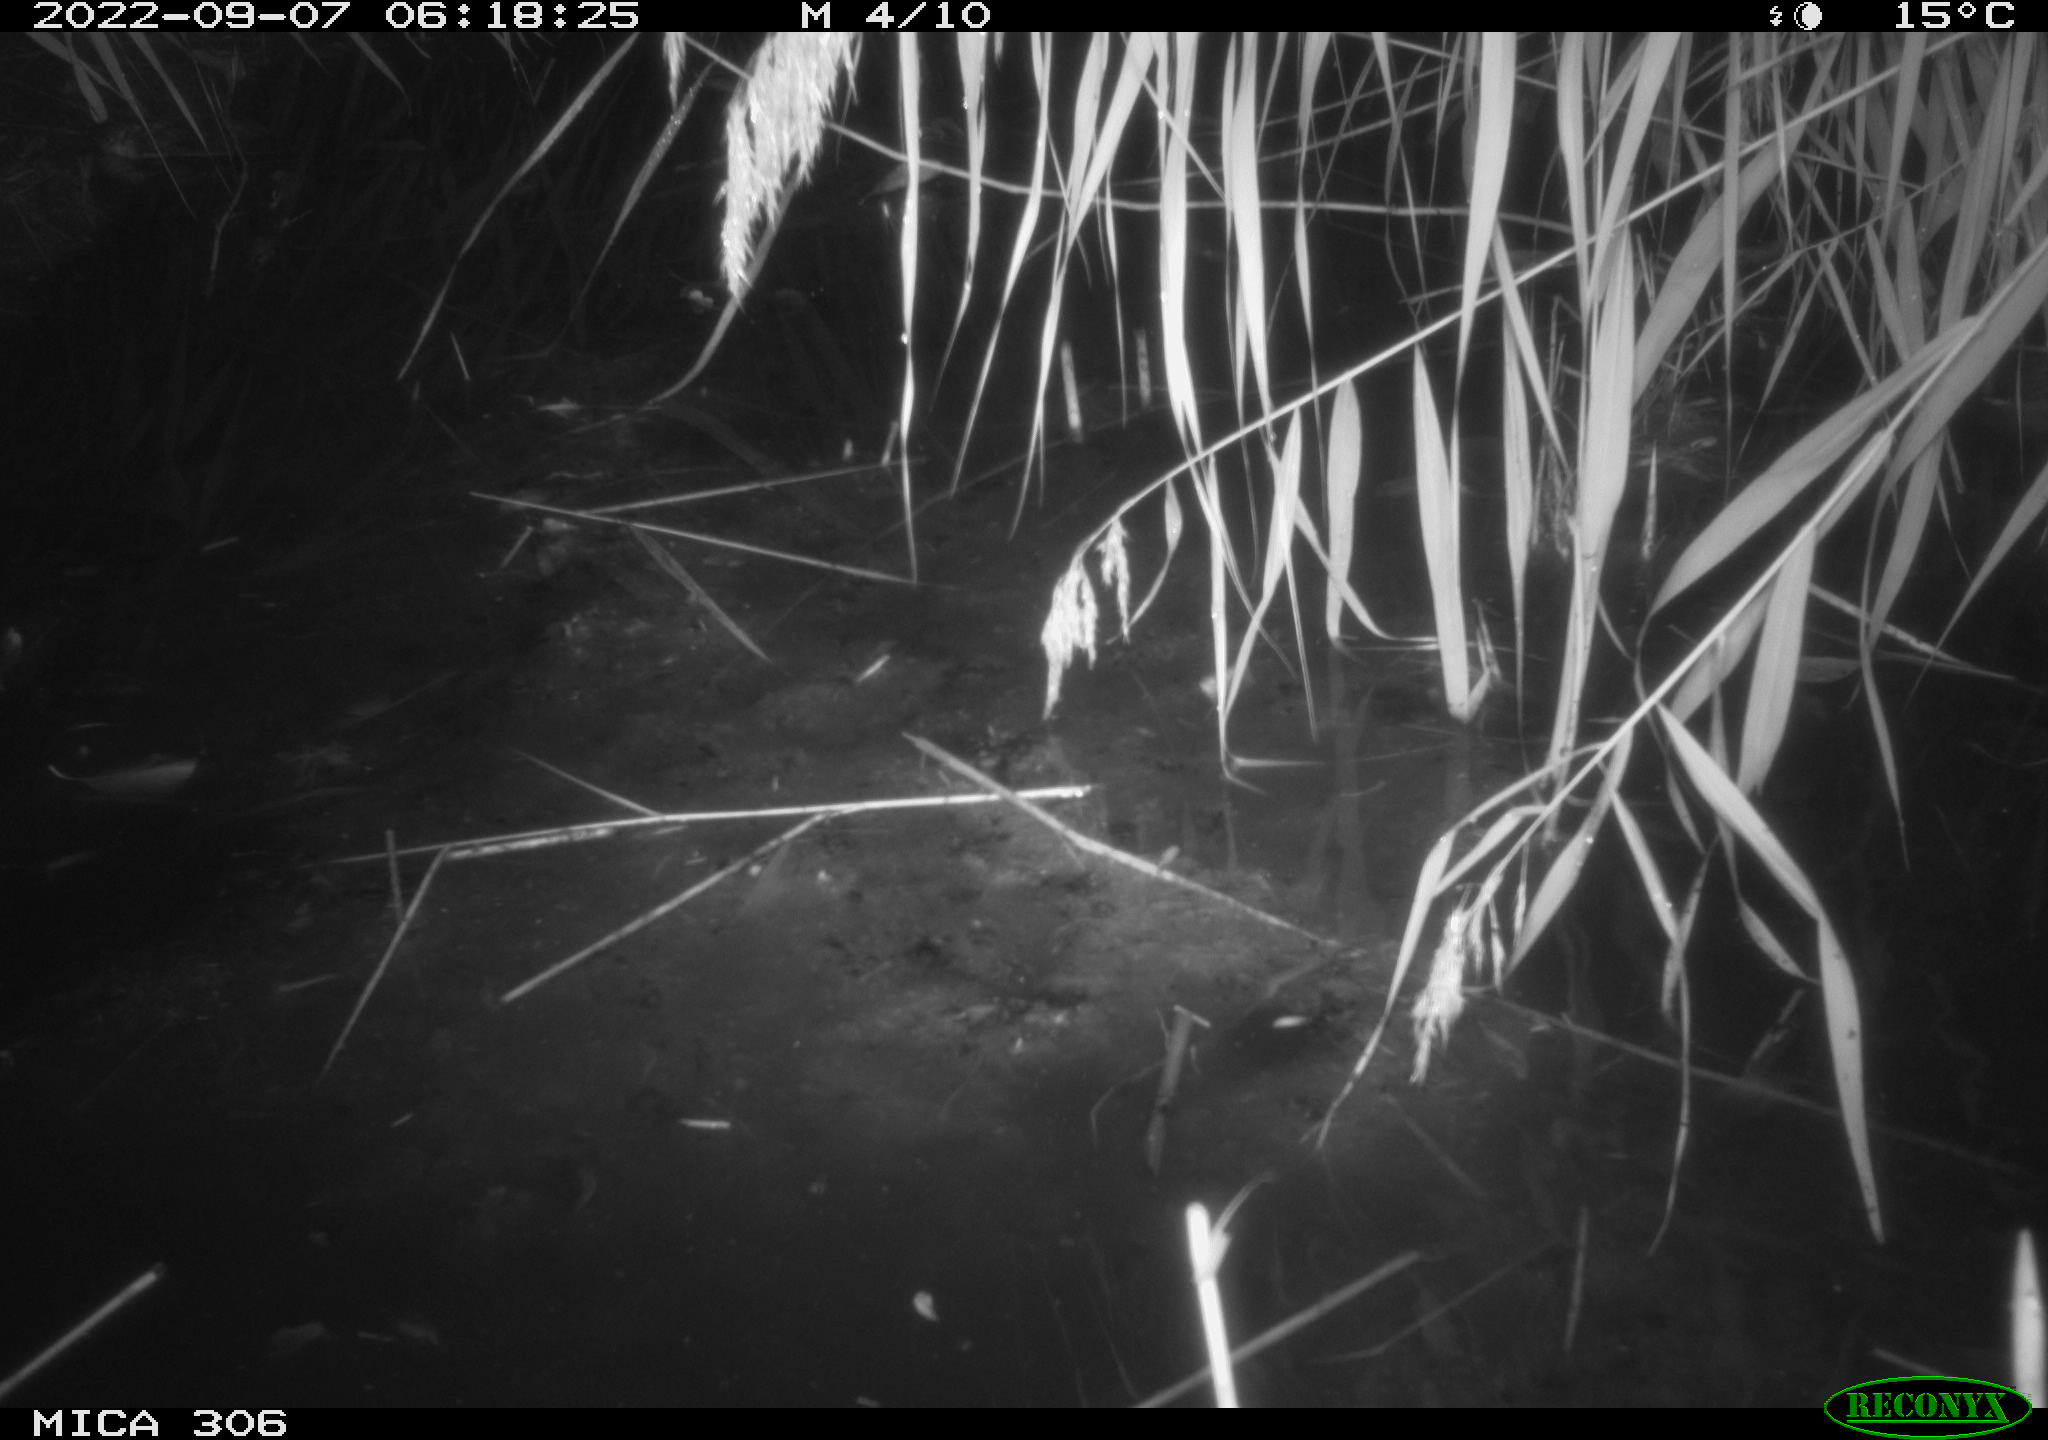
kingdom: Animalia
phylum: Chordata
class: Mammalia
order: Rodentia
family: Muridae
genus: Rattus
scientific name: Rattus norvegicus
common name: Brown rat
